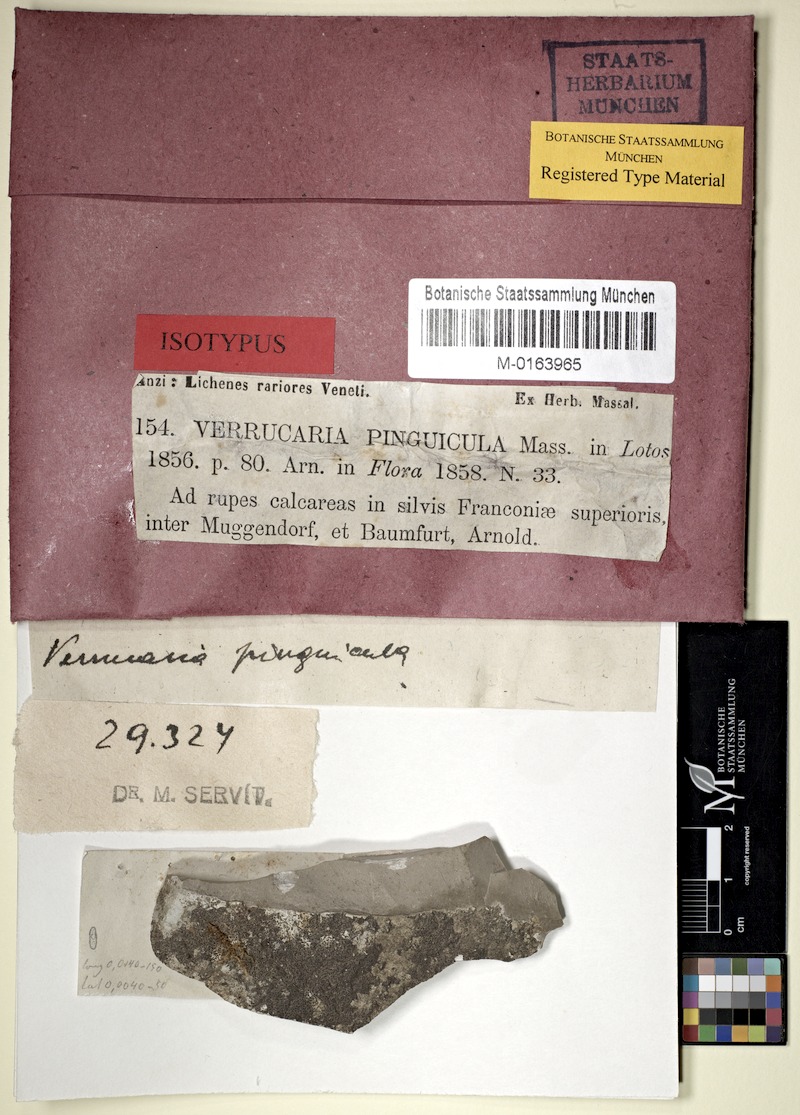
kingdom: Fungi
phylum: Ascomycota
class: Eurotiomycetes
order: Verrucariales
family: Verrucariaceae
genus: Verrucaria
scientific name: Verrucaria pinguicula
